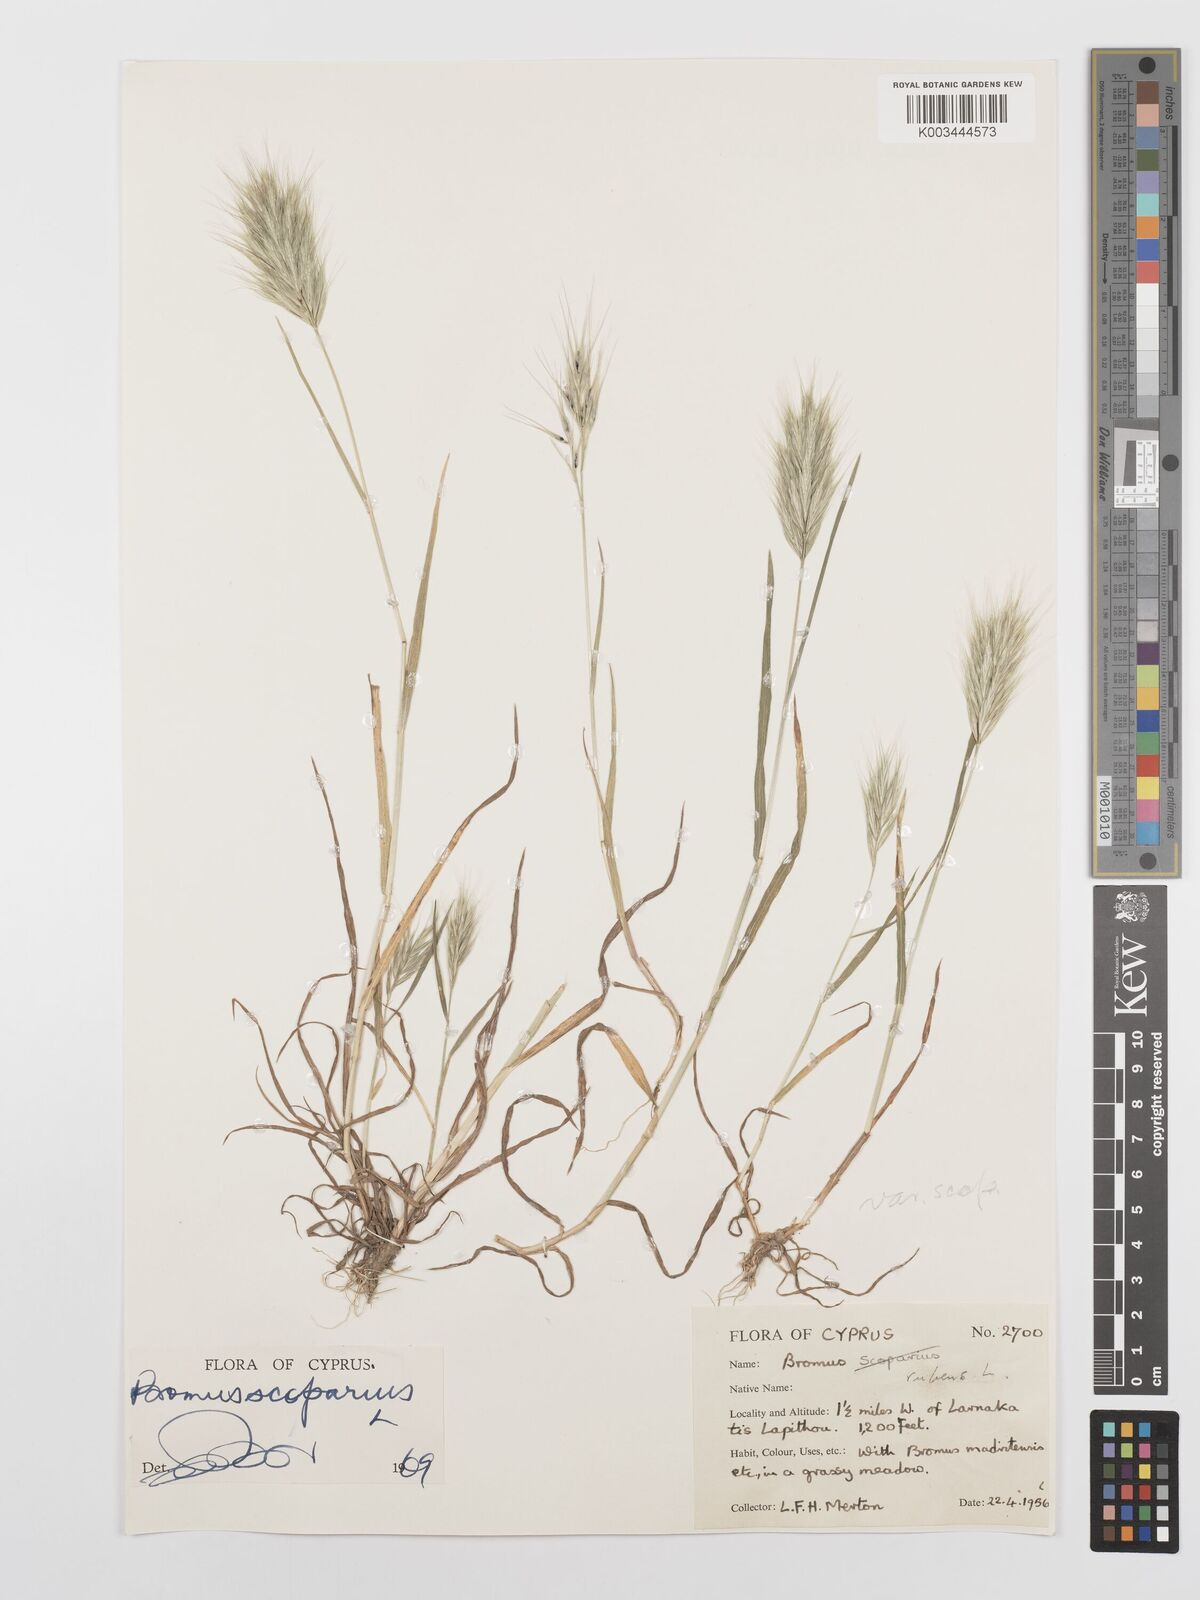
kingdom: Plantae
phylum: Tracheophyta
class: Liliopsida
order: Poales
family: Poaceae
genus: Bromus
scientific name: Bromus scoparius
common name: Broom brome
